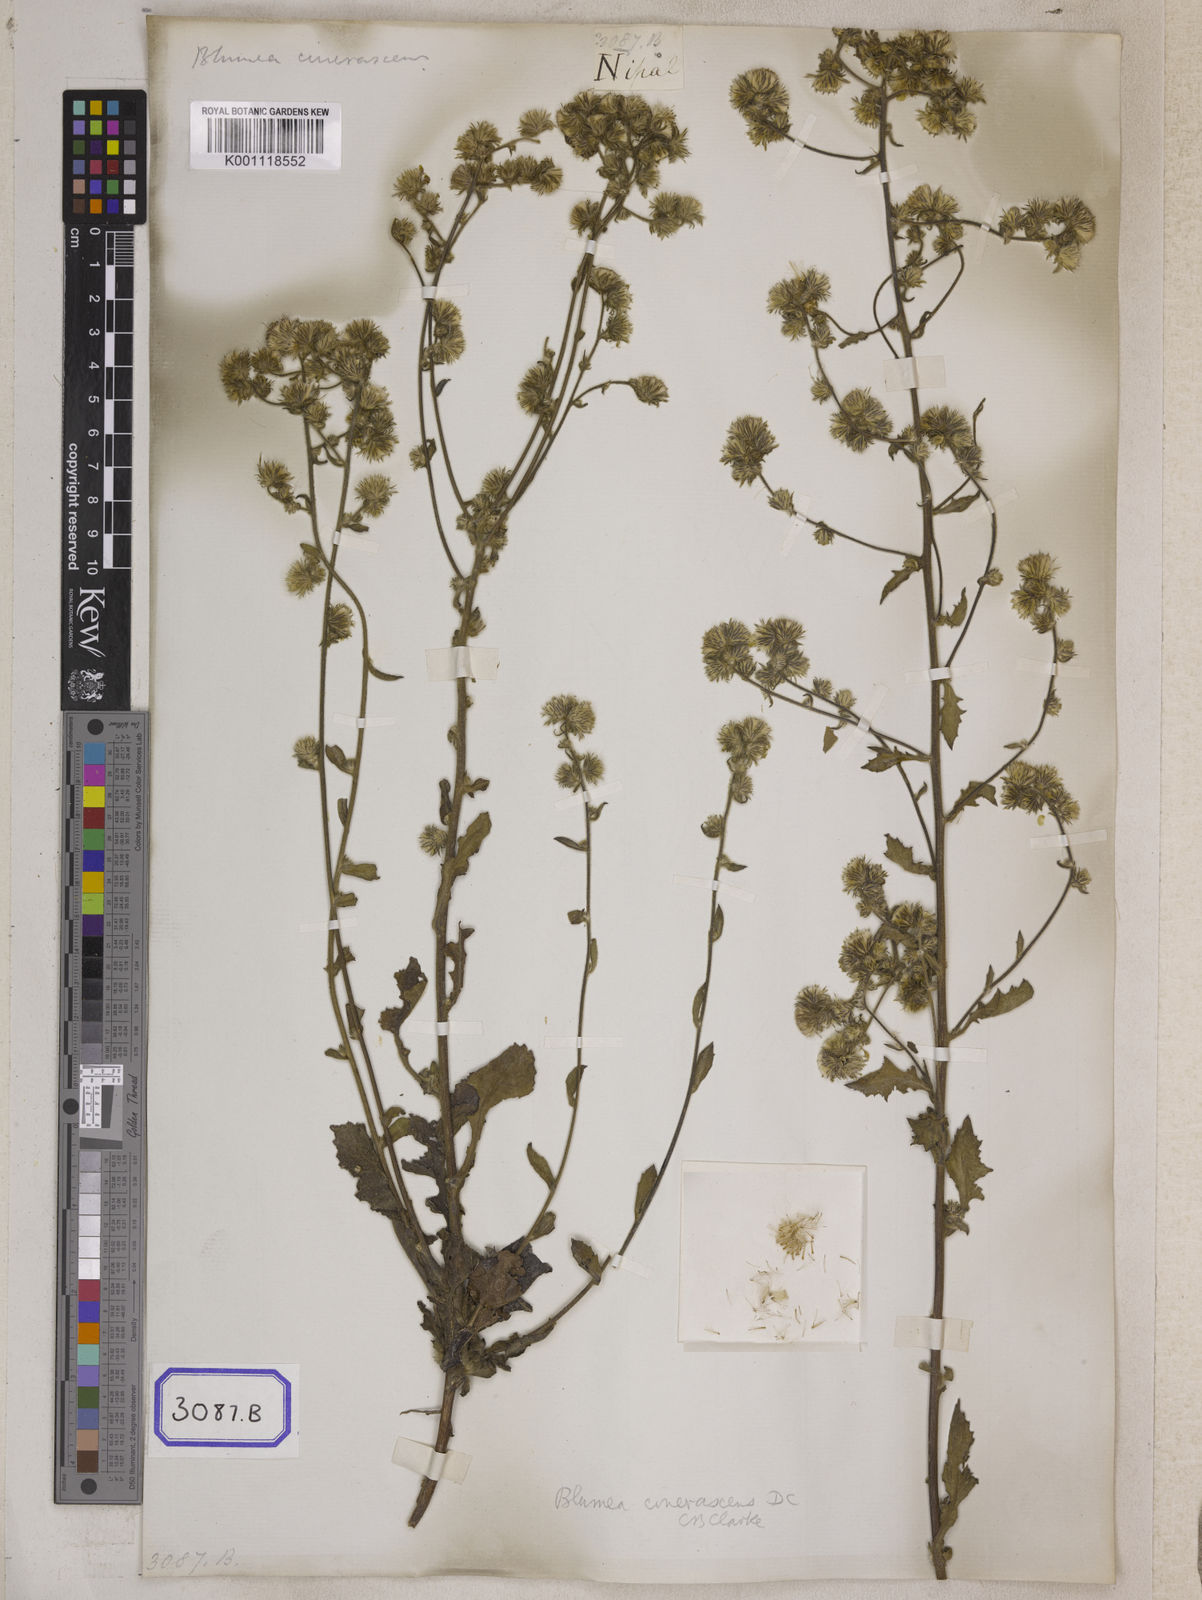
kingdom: Plantae
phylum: Tracheophyta
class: Magnoliopsida
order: Asterales
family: Asteraceae
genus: Blumea
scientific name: Blumea sinuata
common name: Cutleaf false oxtongue
